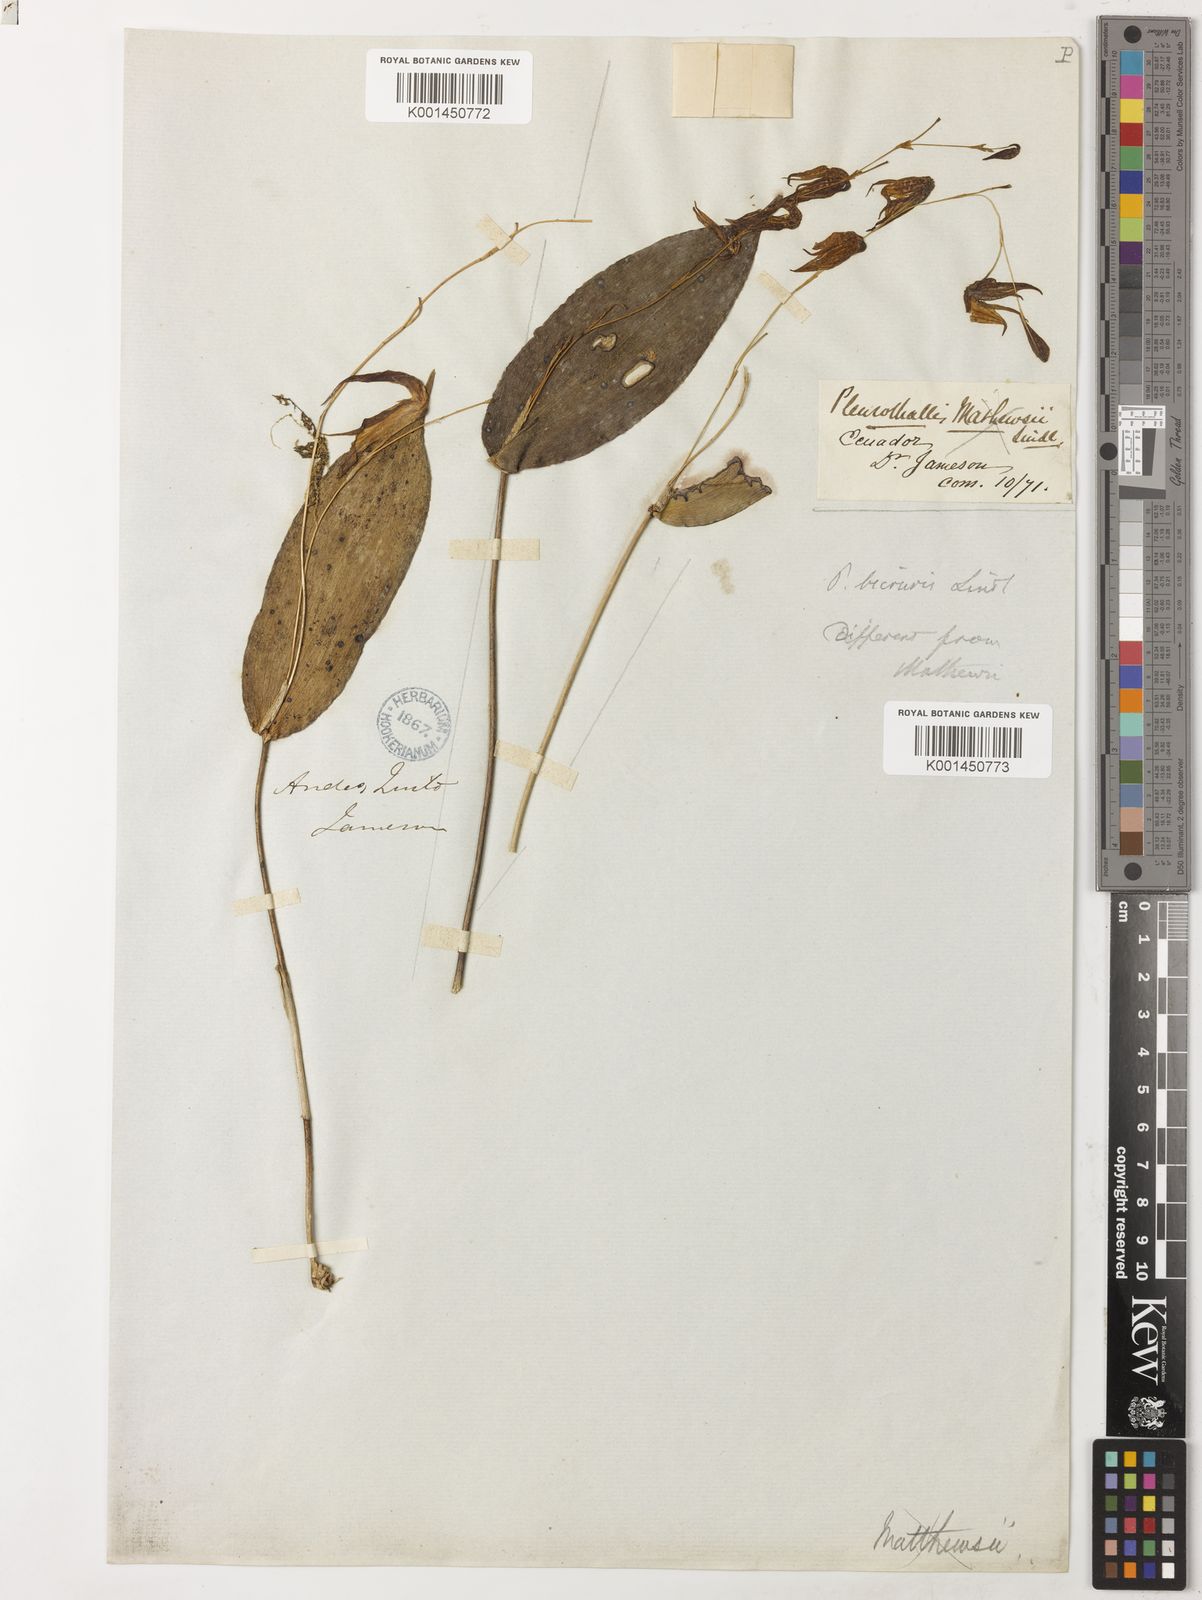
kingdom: Plantae
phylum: Tracheophyta
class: Liliopsida
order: Asparagales
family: Orchidaceae
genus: Pleurothallis
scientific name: Pleurothallis bicornis
